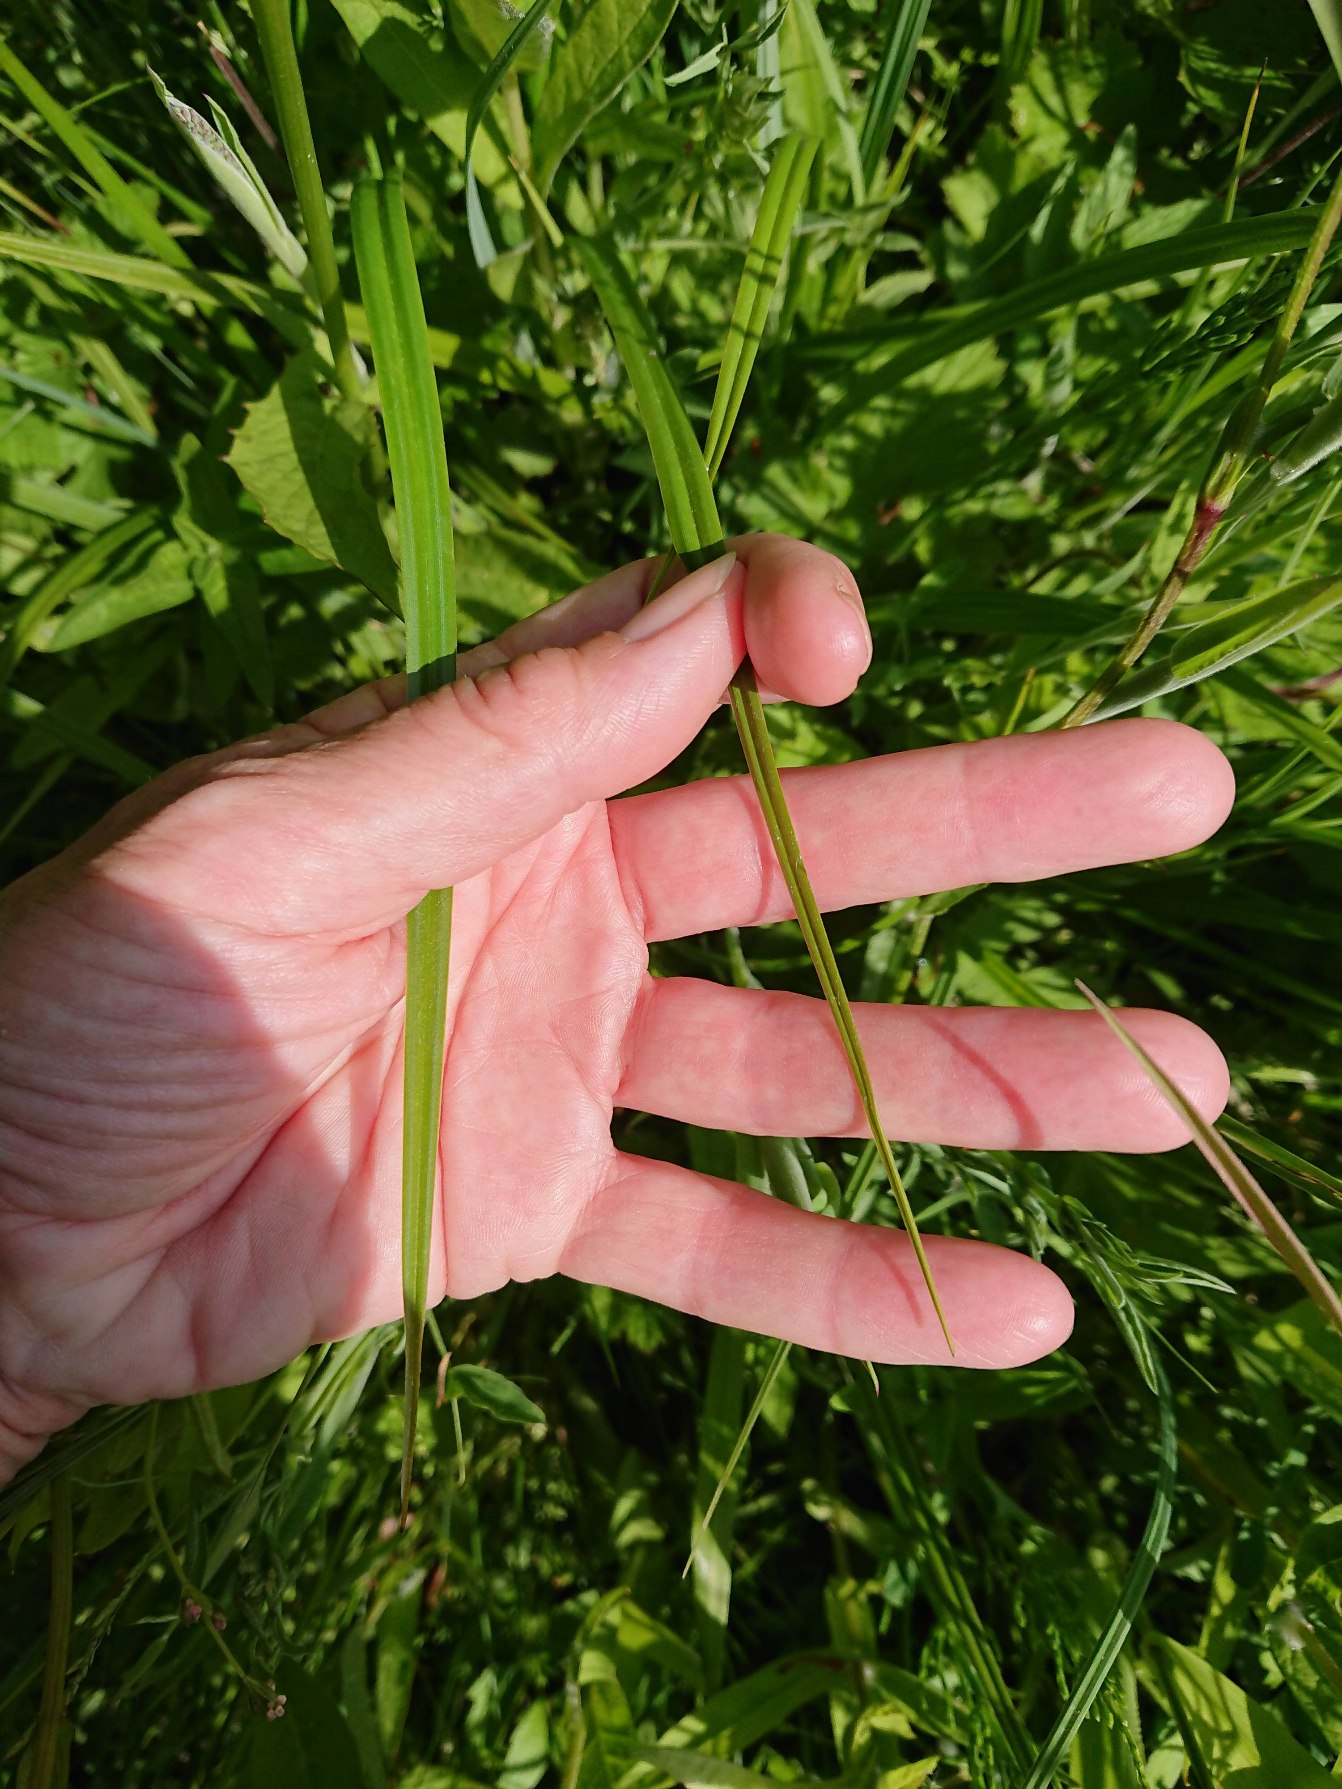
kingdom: Plantae
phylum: Tracheophyta
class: Liliopsida
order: Poales
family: Cyperaceae
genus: Scirpus
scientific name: Scirpus sylvaticus
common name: Skov-kogleaks
